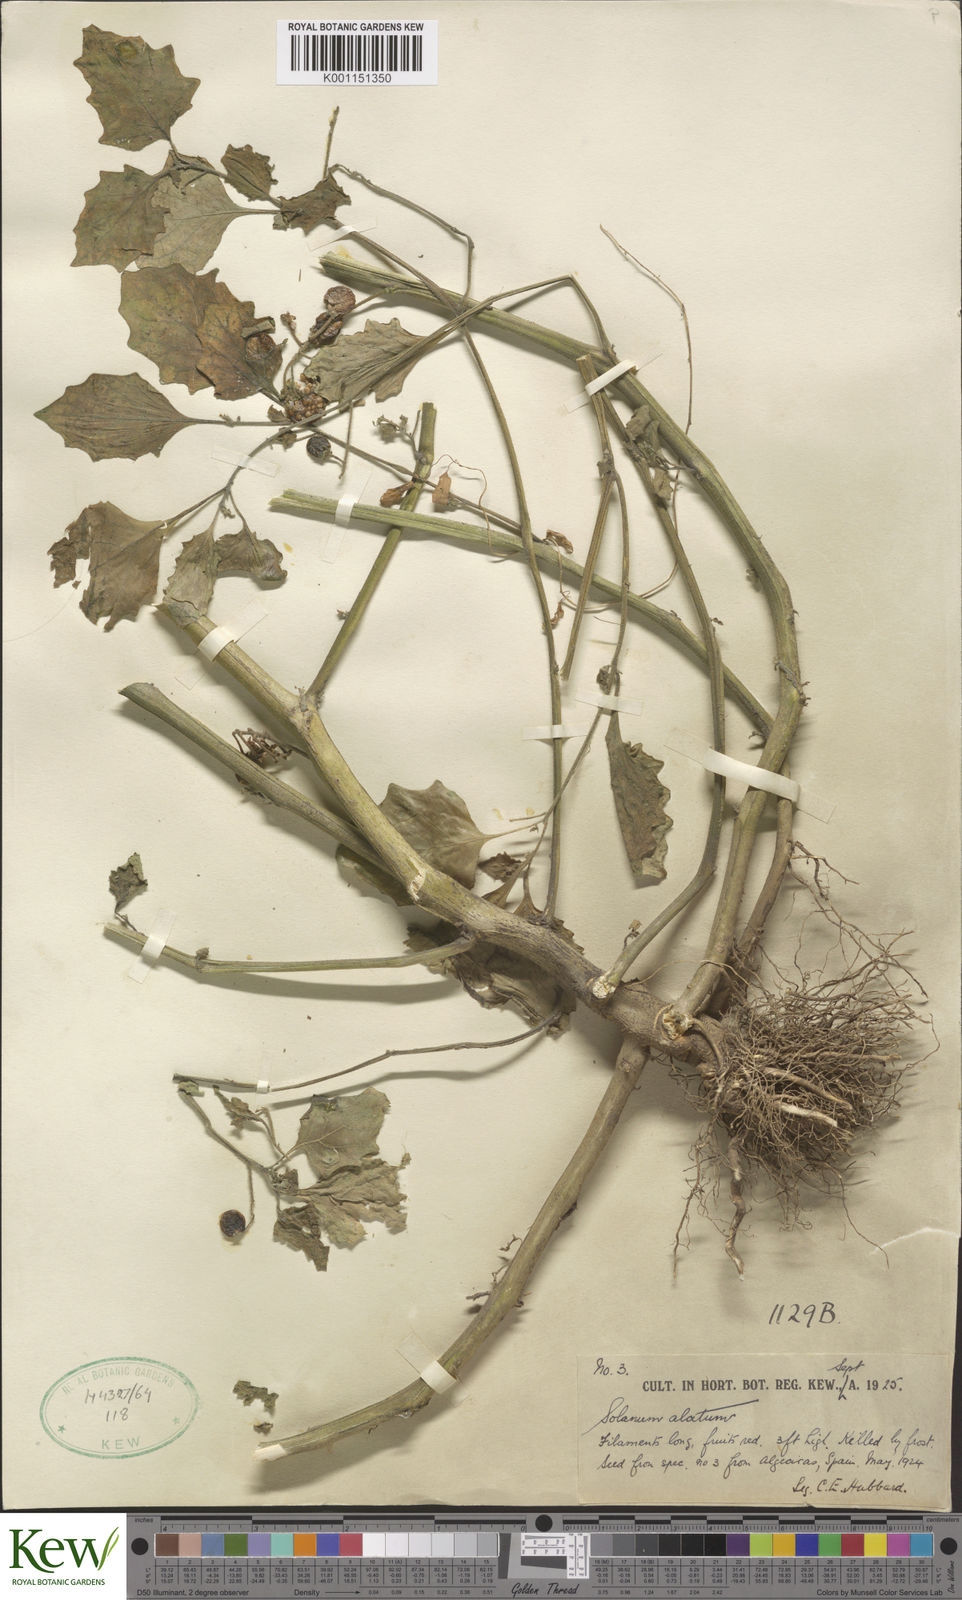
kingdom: Plantae
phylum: Tracheophyta
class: Magnoliopsida
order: Solanales
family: Solanaceae
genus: Solanum
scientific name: Solanum alatum
